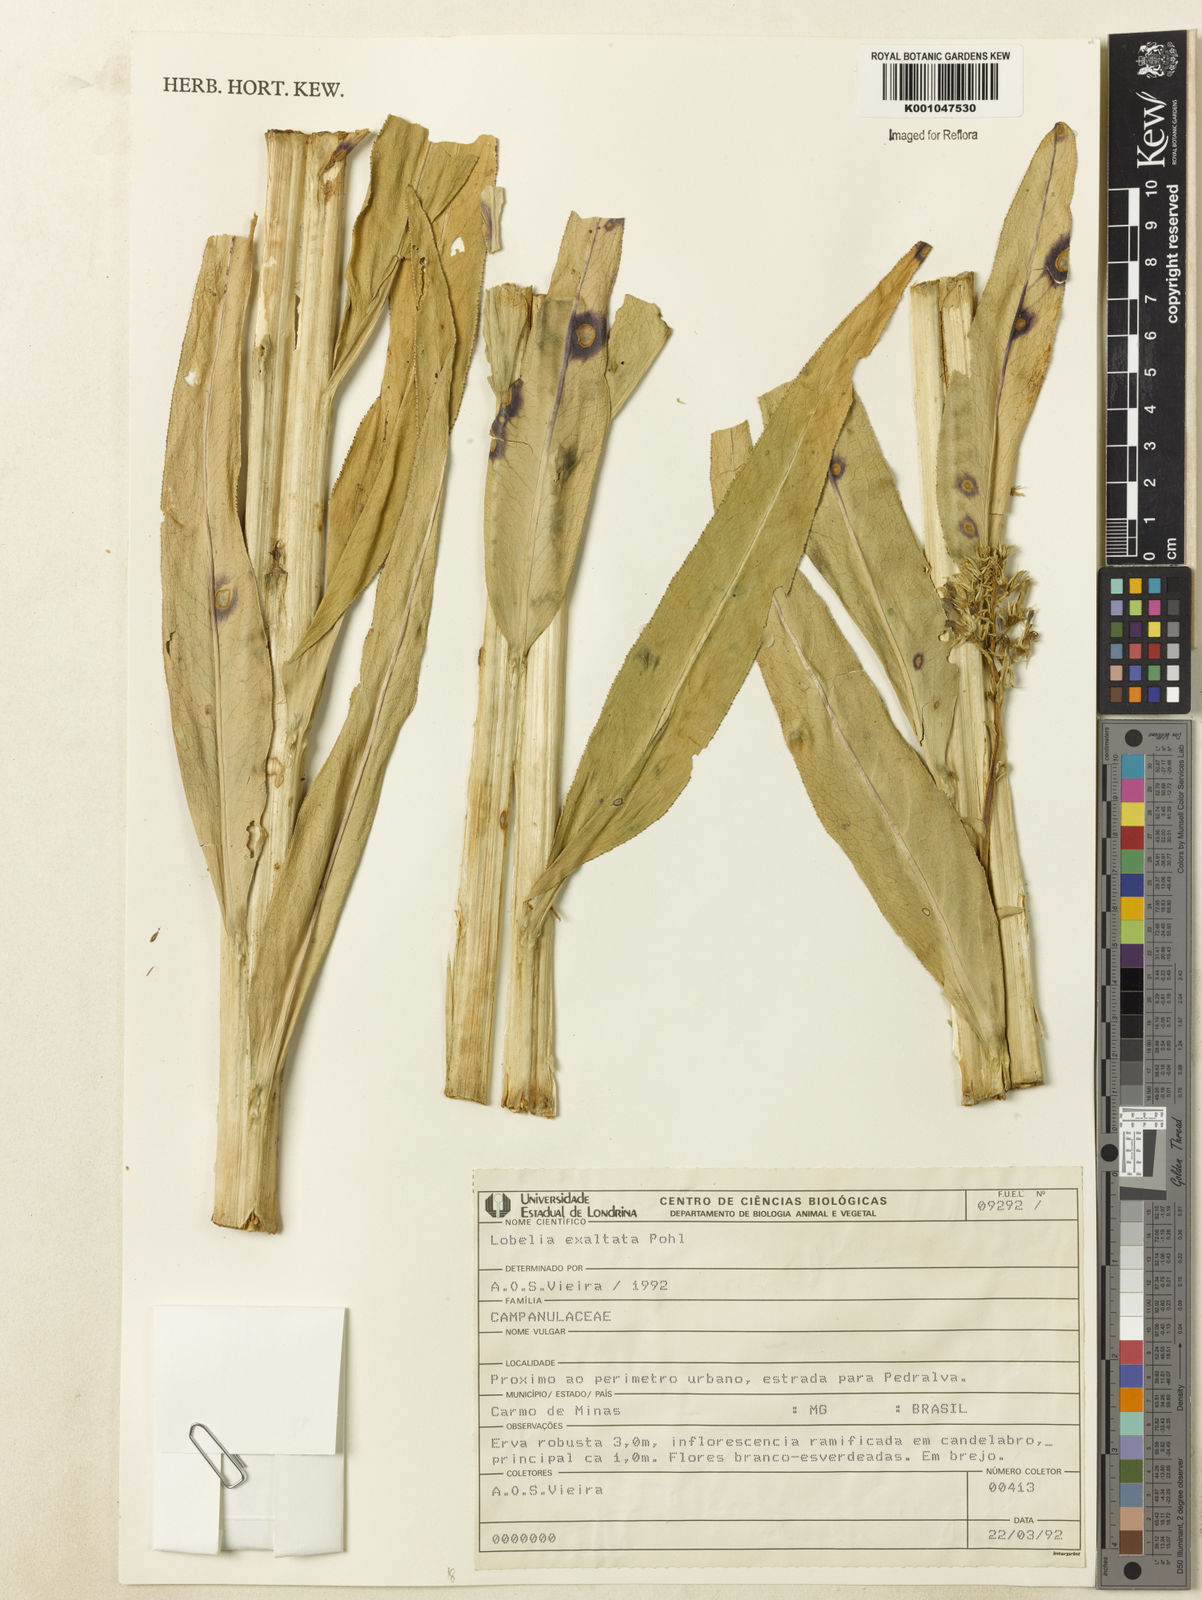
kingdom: Plantae
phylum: Tracheophyta
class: Magnoliopsida
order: Asterales
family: Campanulaceae
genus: Lobelia
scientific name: Lobelia exaltata
